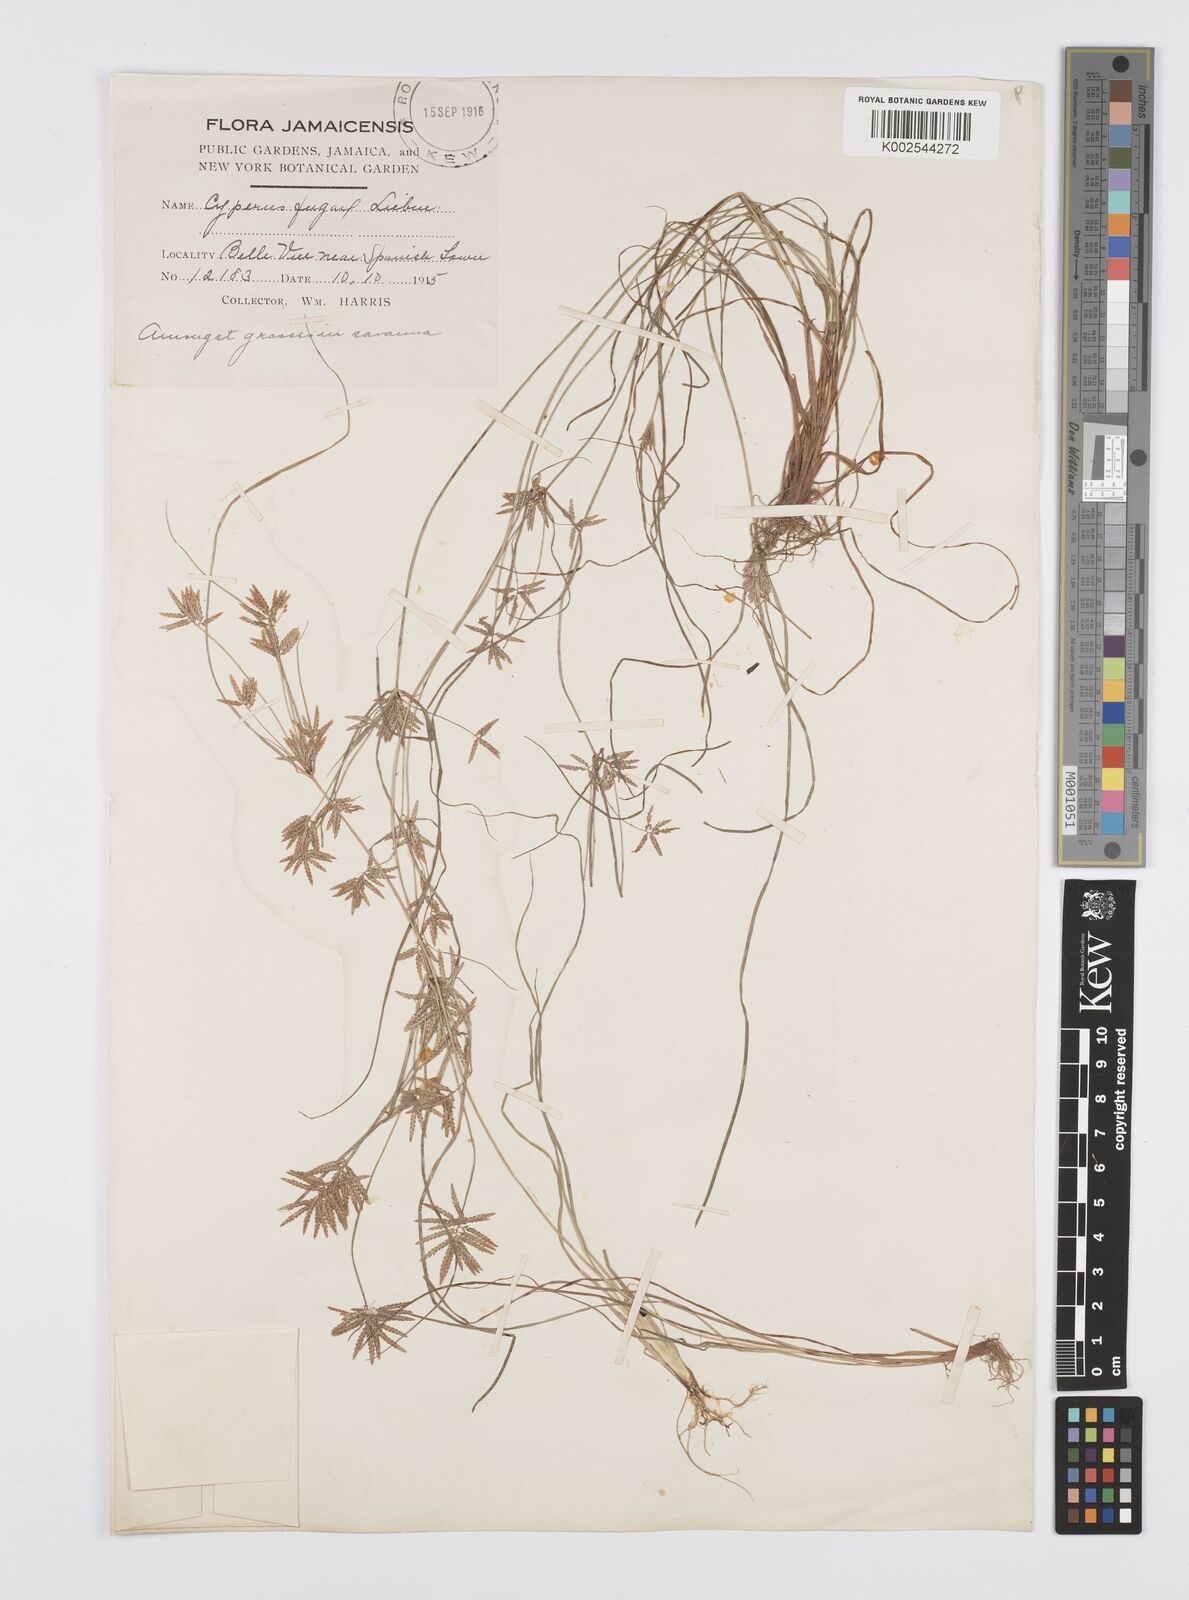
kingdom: Plantae
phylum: Tracheophyta
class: Liliopsida
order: Poales
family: Cyperaceae
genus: Cyperus
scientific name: Cyperus polystachyos
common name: Bunchy flat sedge
